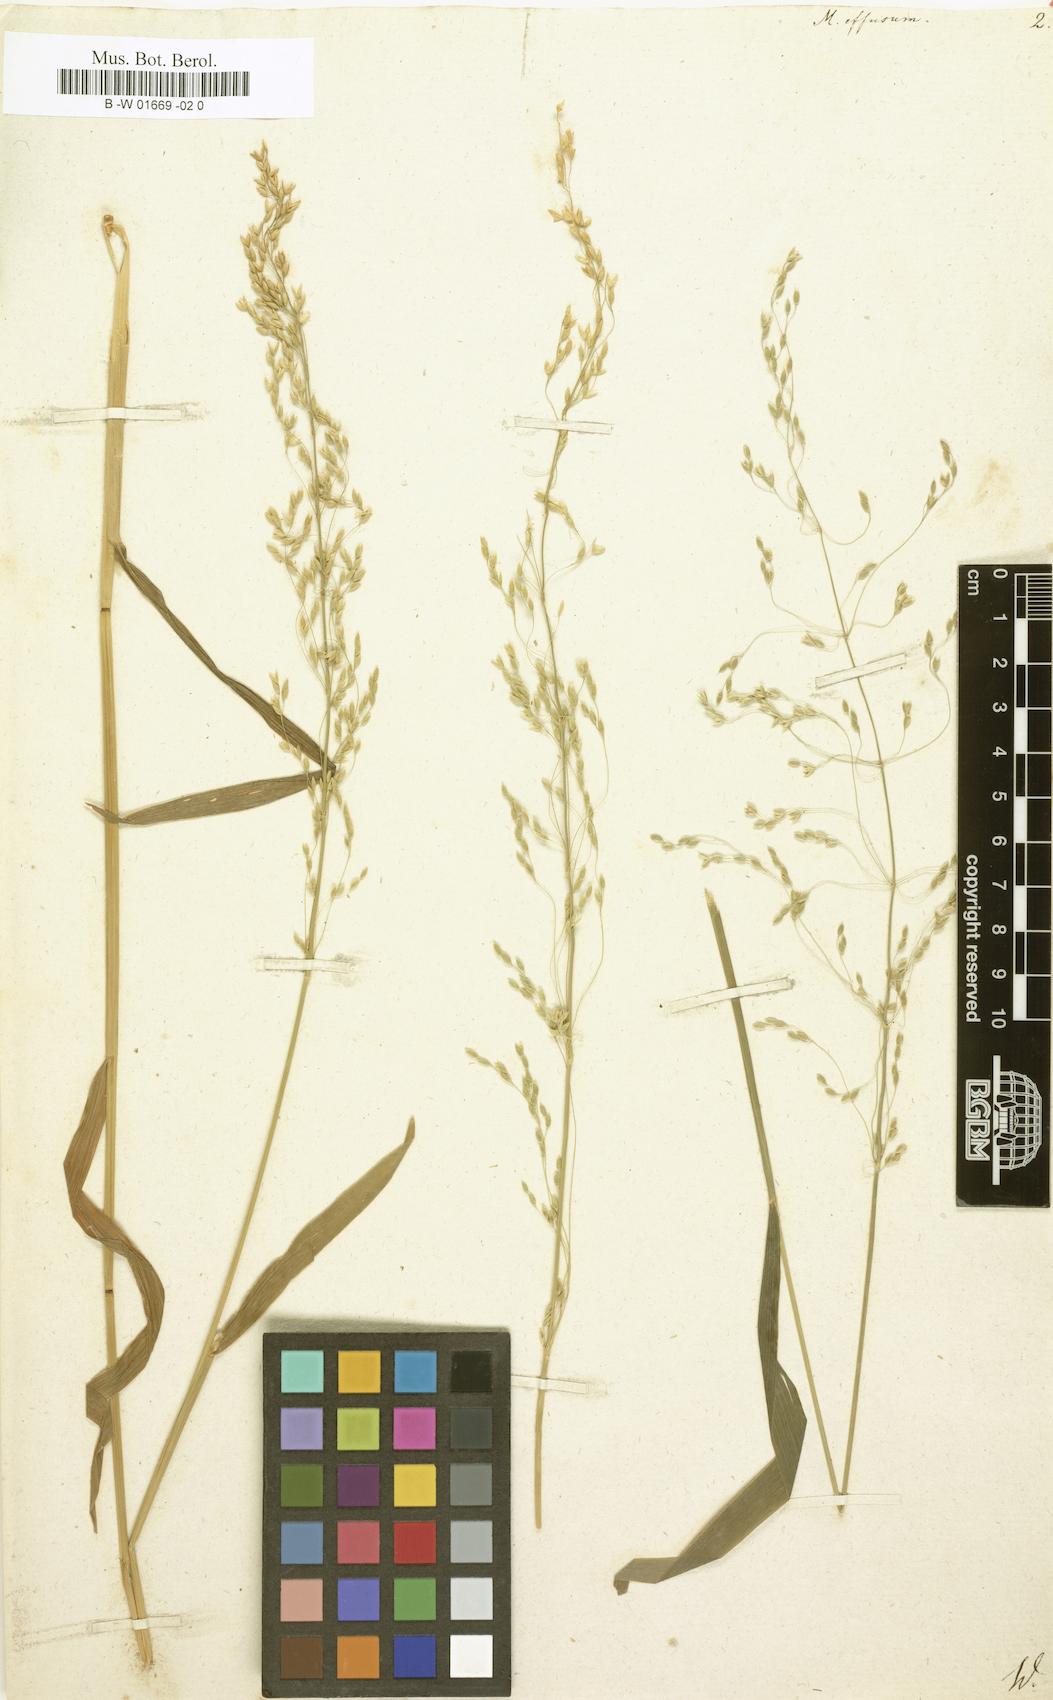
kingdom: Plantae
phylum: Tracheophyta
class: Liliopsida
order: Poales
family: Poaceae
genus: Milium
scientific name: Milium effusum
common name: Wood millet
